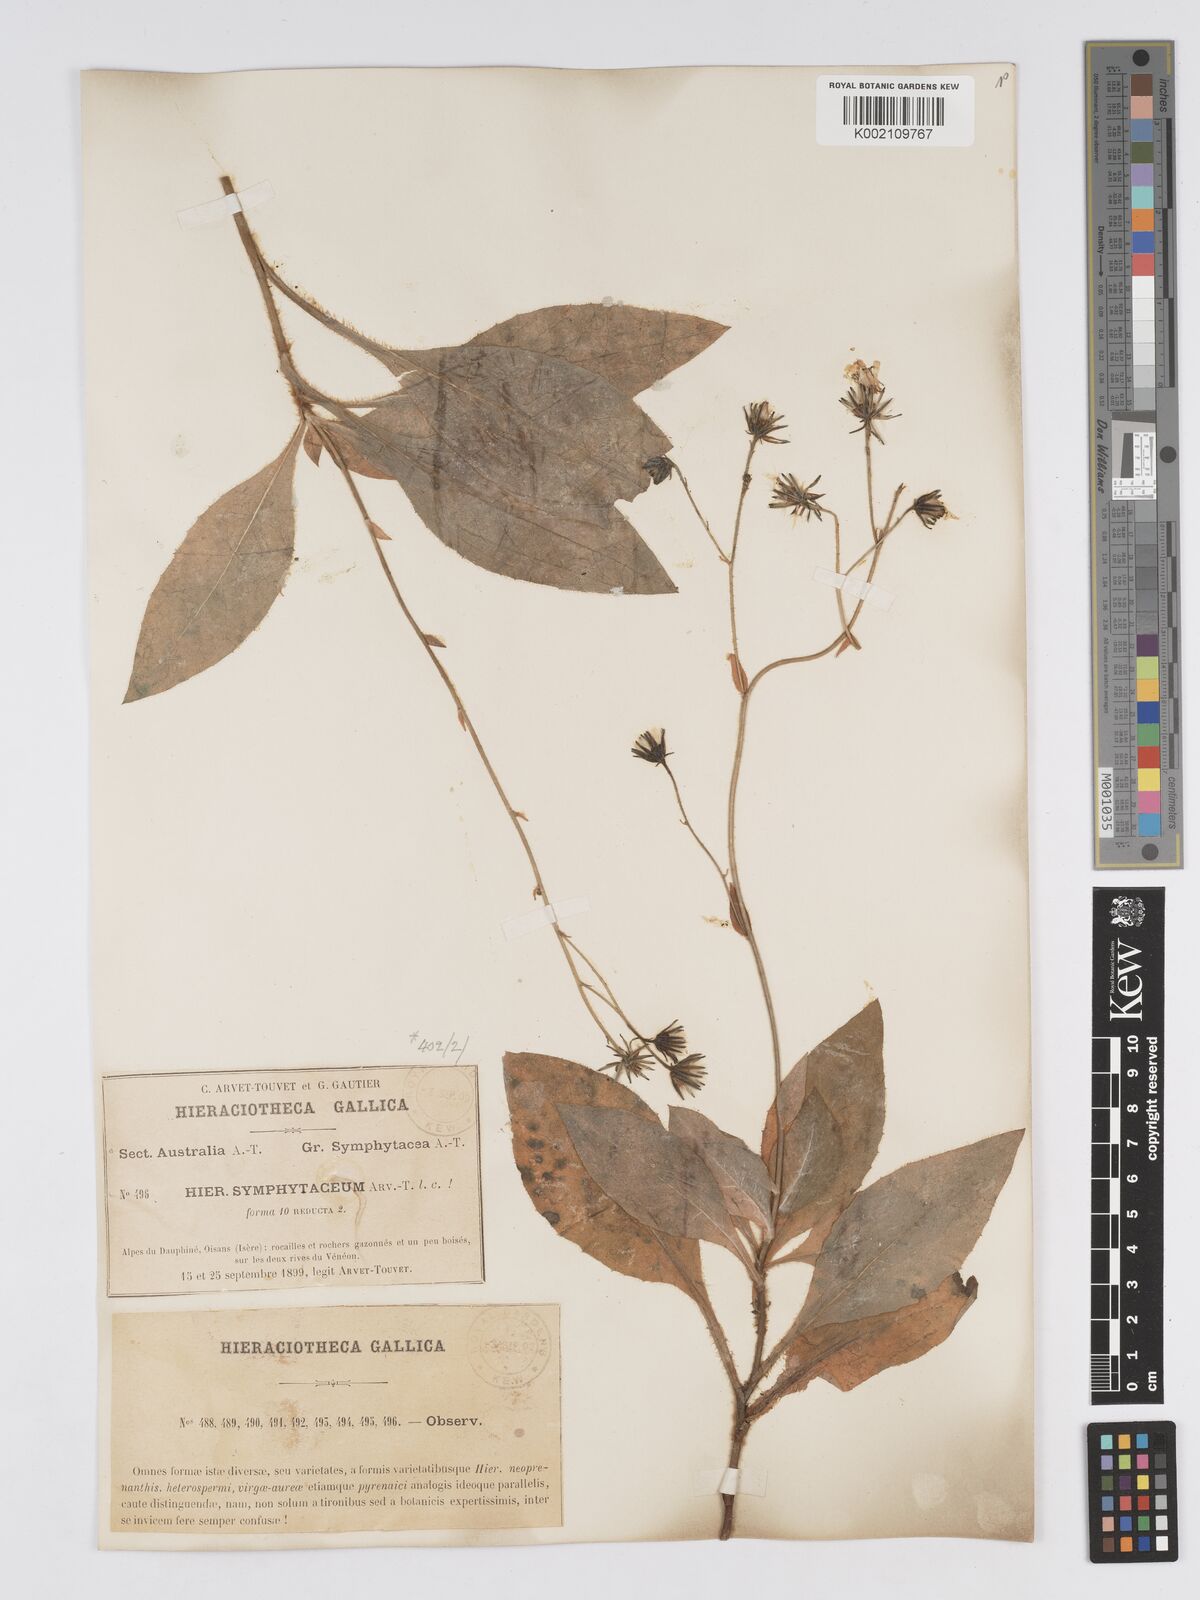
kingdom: Plantae
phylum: Tracheophyta
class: Magnoliopsida
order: Asterales
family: Asteraceae
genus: Hieracium
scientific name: Hieracium symphytaceum
